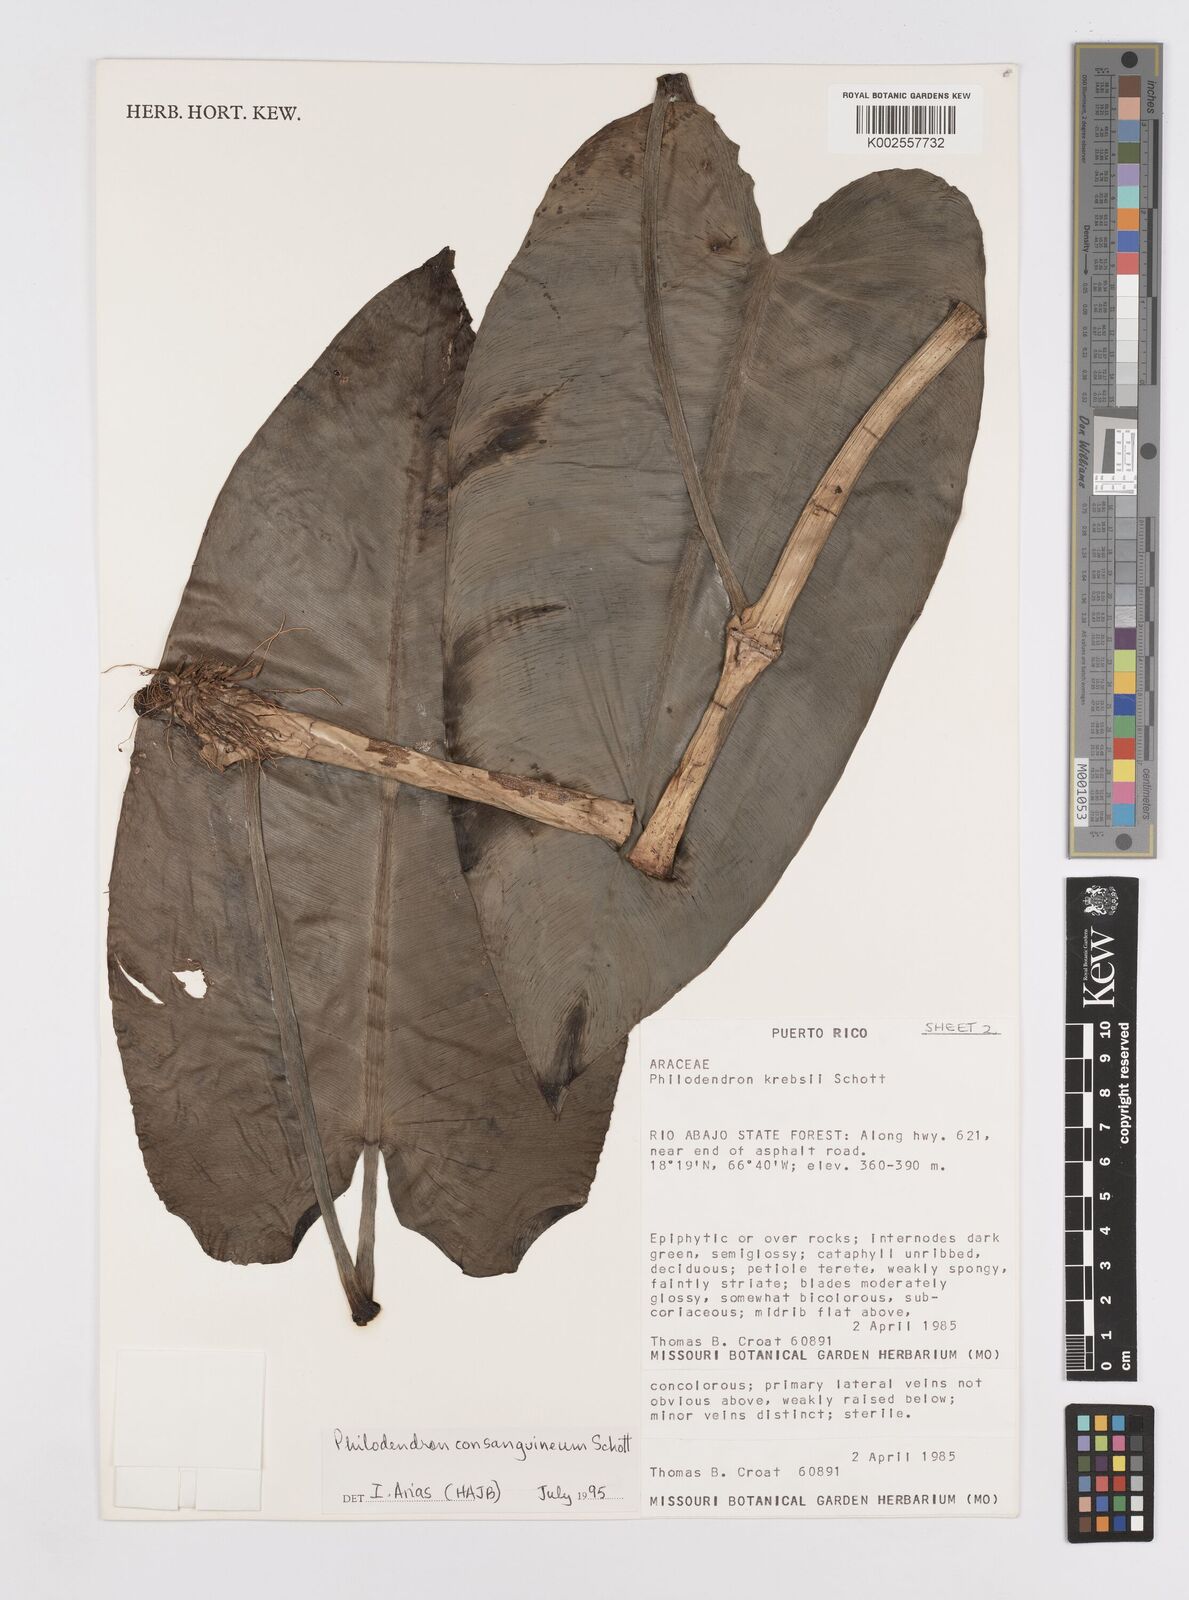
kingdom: Plantae
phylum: Tracheophyta
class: Liliopsida
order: Alismatales
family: Araceae
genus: Philodendron
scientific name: Philodendron consanguineum
